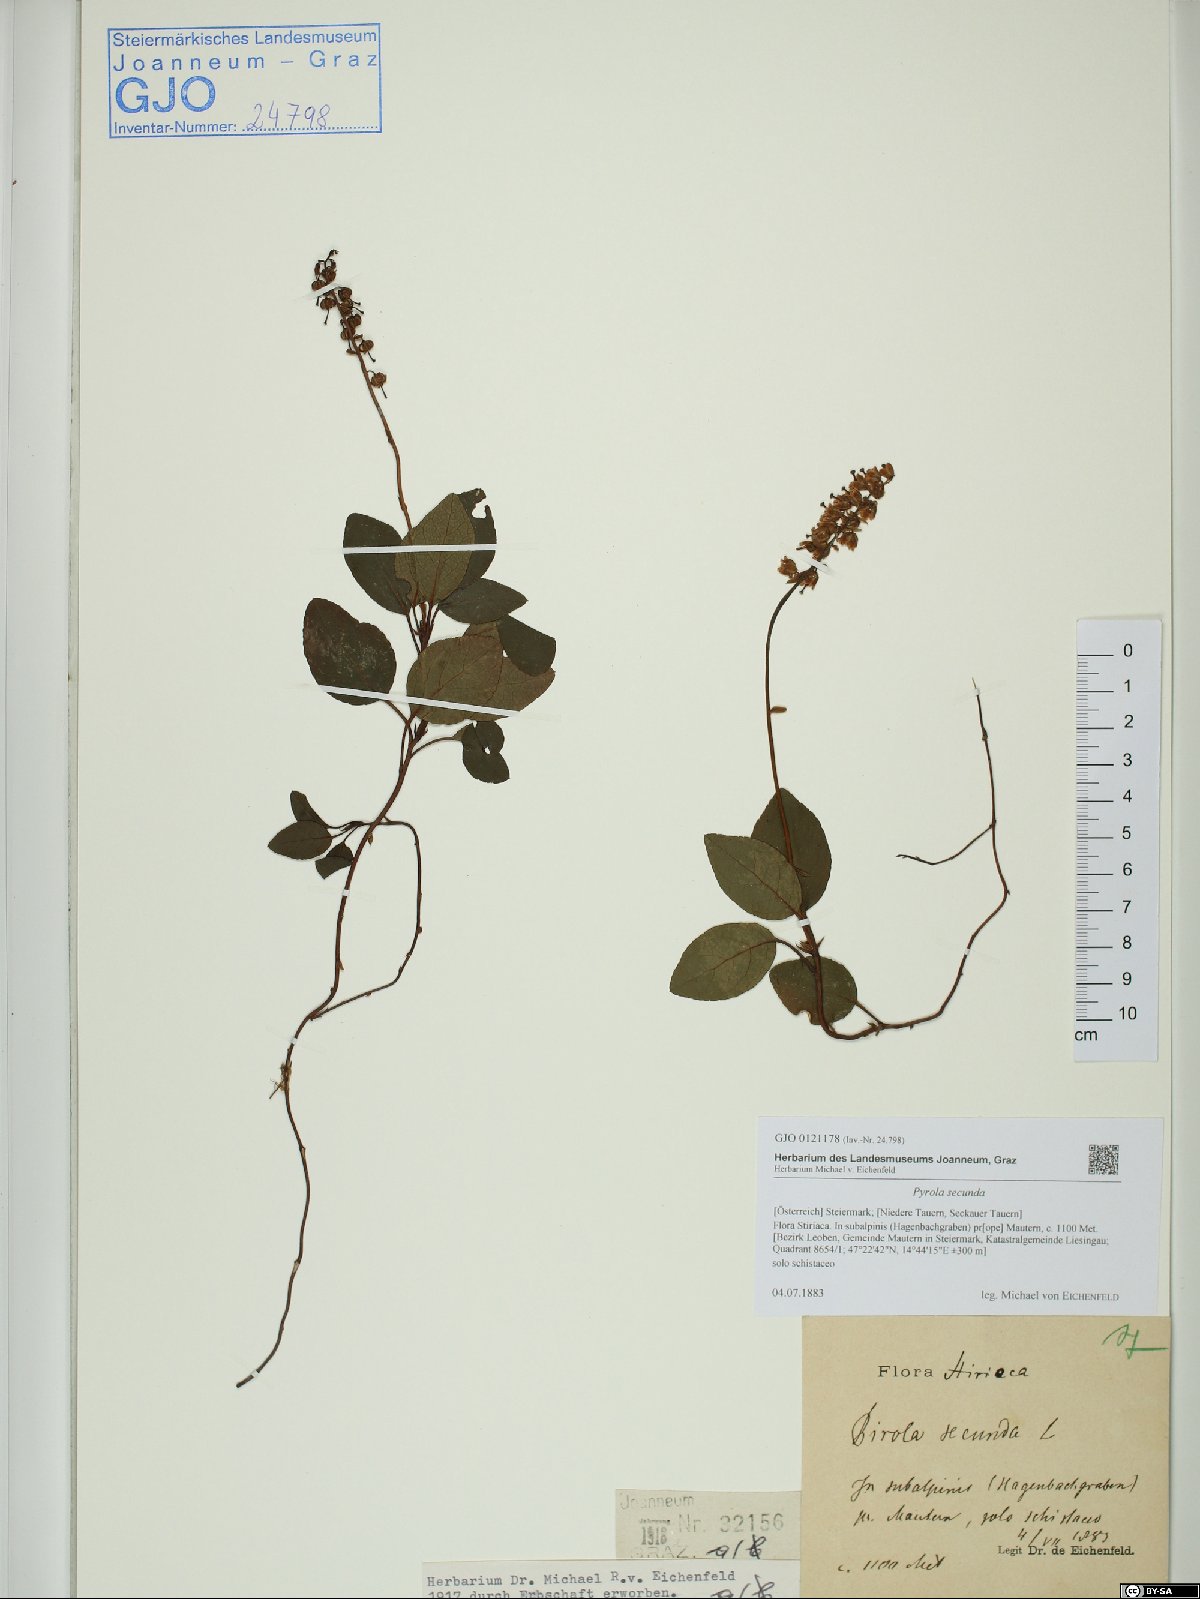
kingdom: Plantae
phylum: Tracheophyta
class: Magnoliopsida
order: Ericales
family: Ericaceae
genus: Orthilia
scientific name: Orthilia secunda
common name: One-sided orthilia
